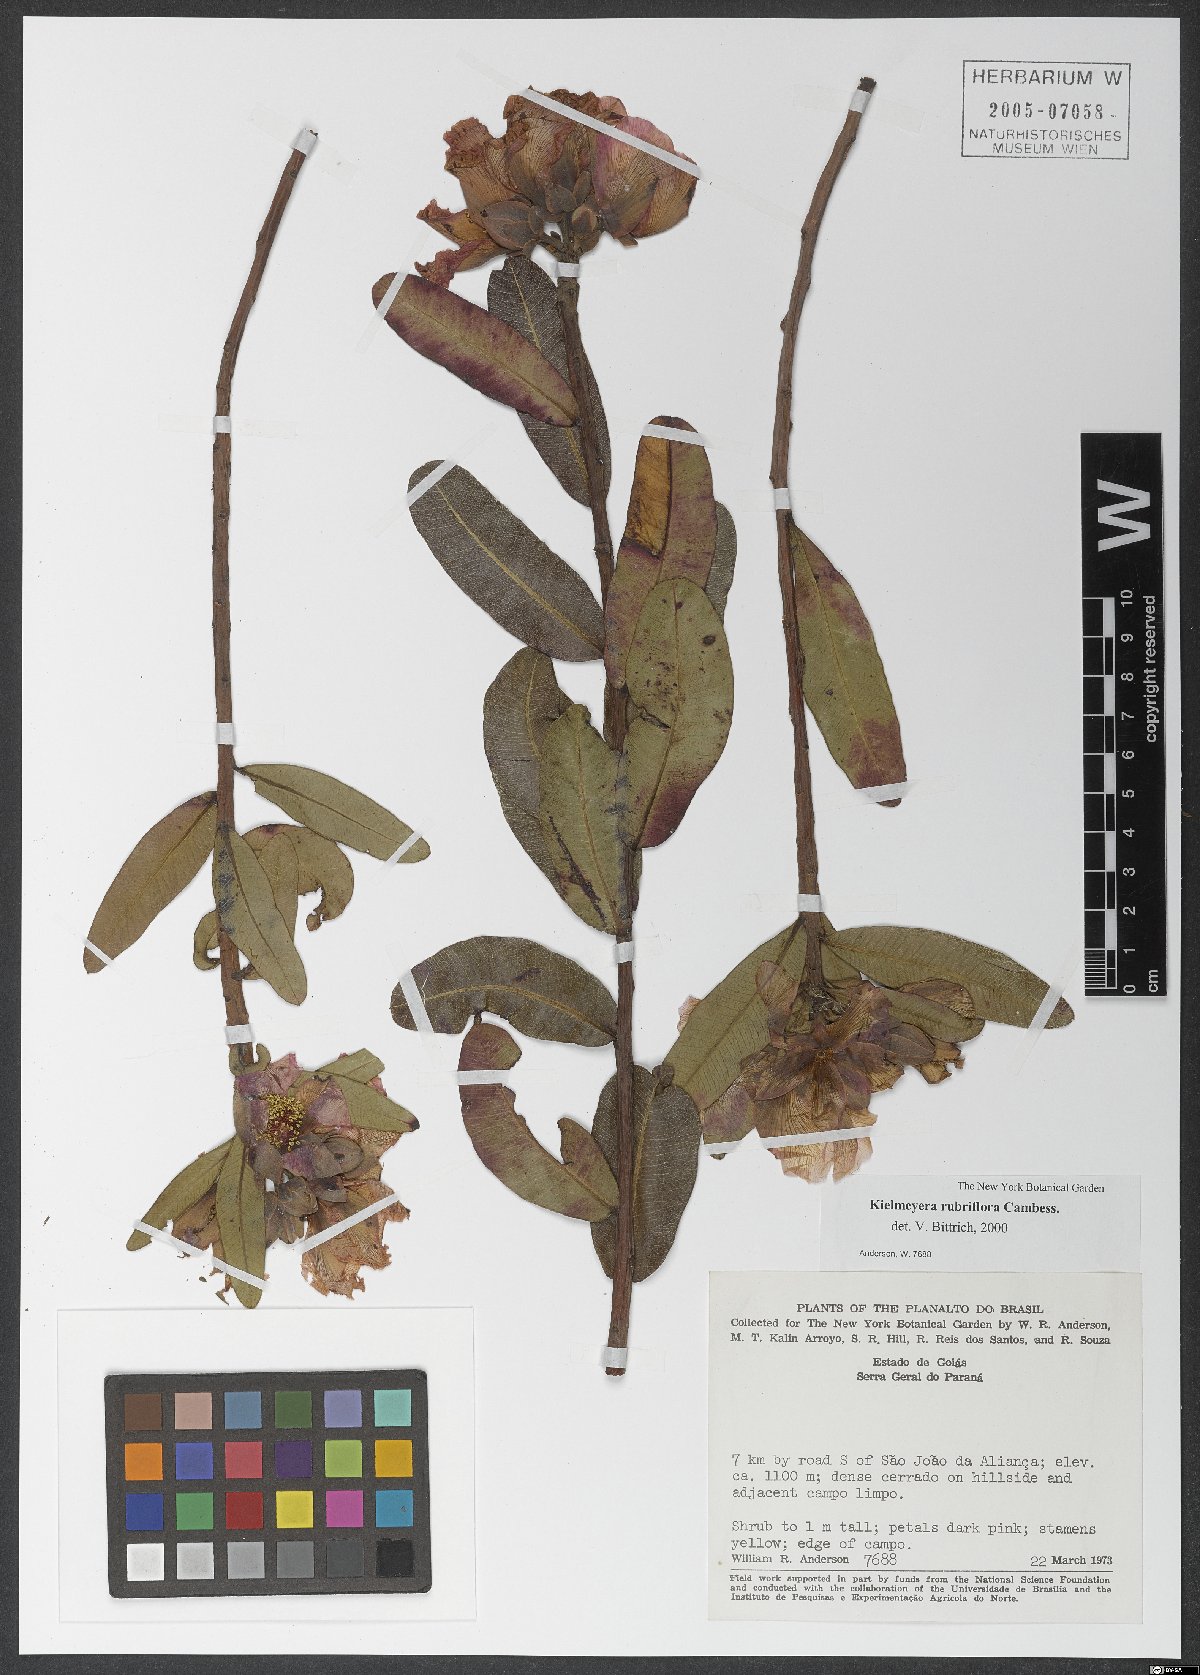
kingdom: Plantae
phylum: Tracheophyta
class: Magnoliopsida
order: Malpighiales
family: Calophyllaceae
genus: Kielmeyera
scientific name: Kielmeyera rubriflora
